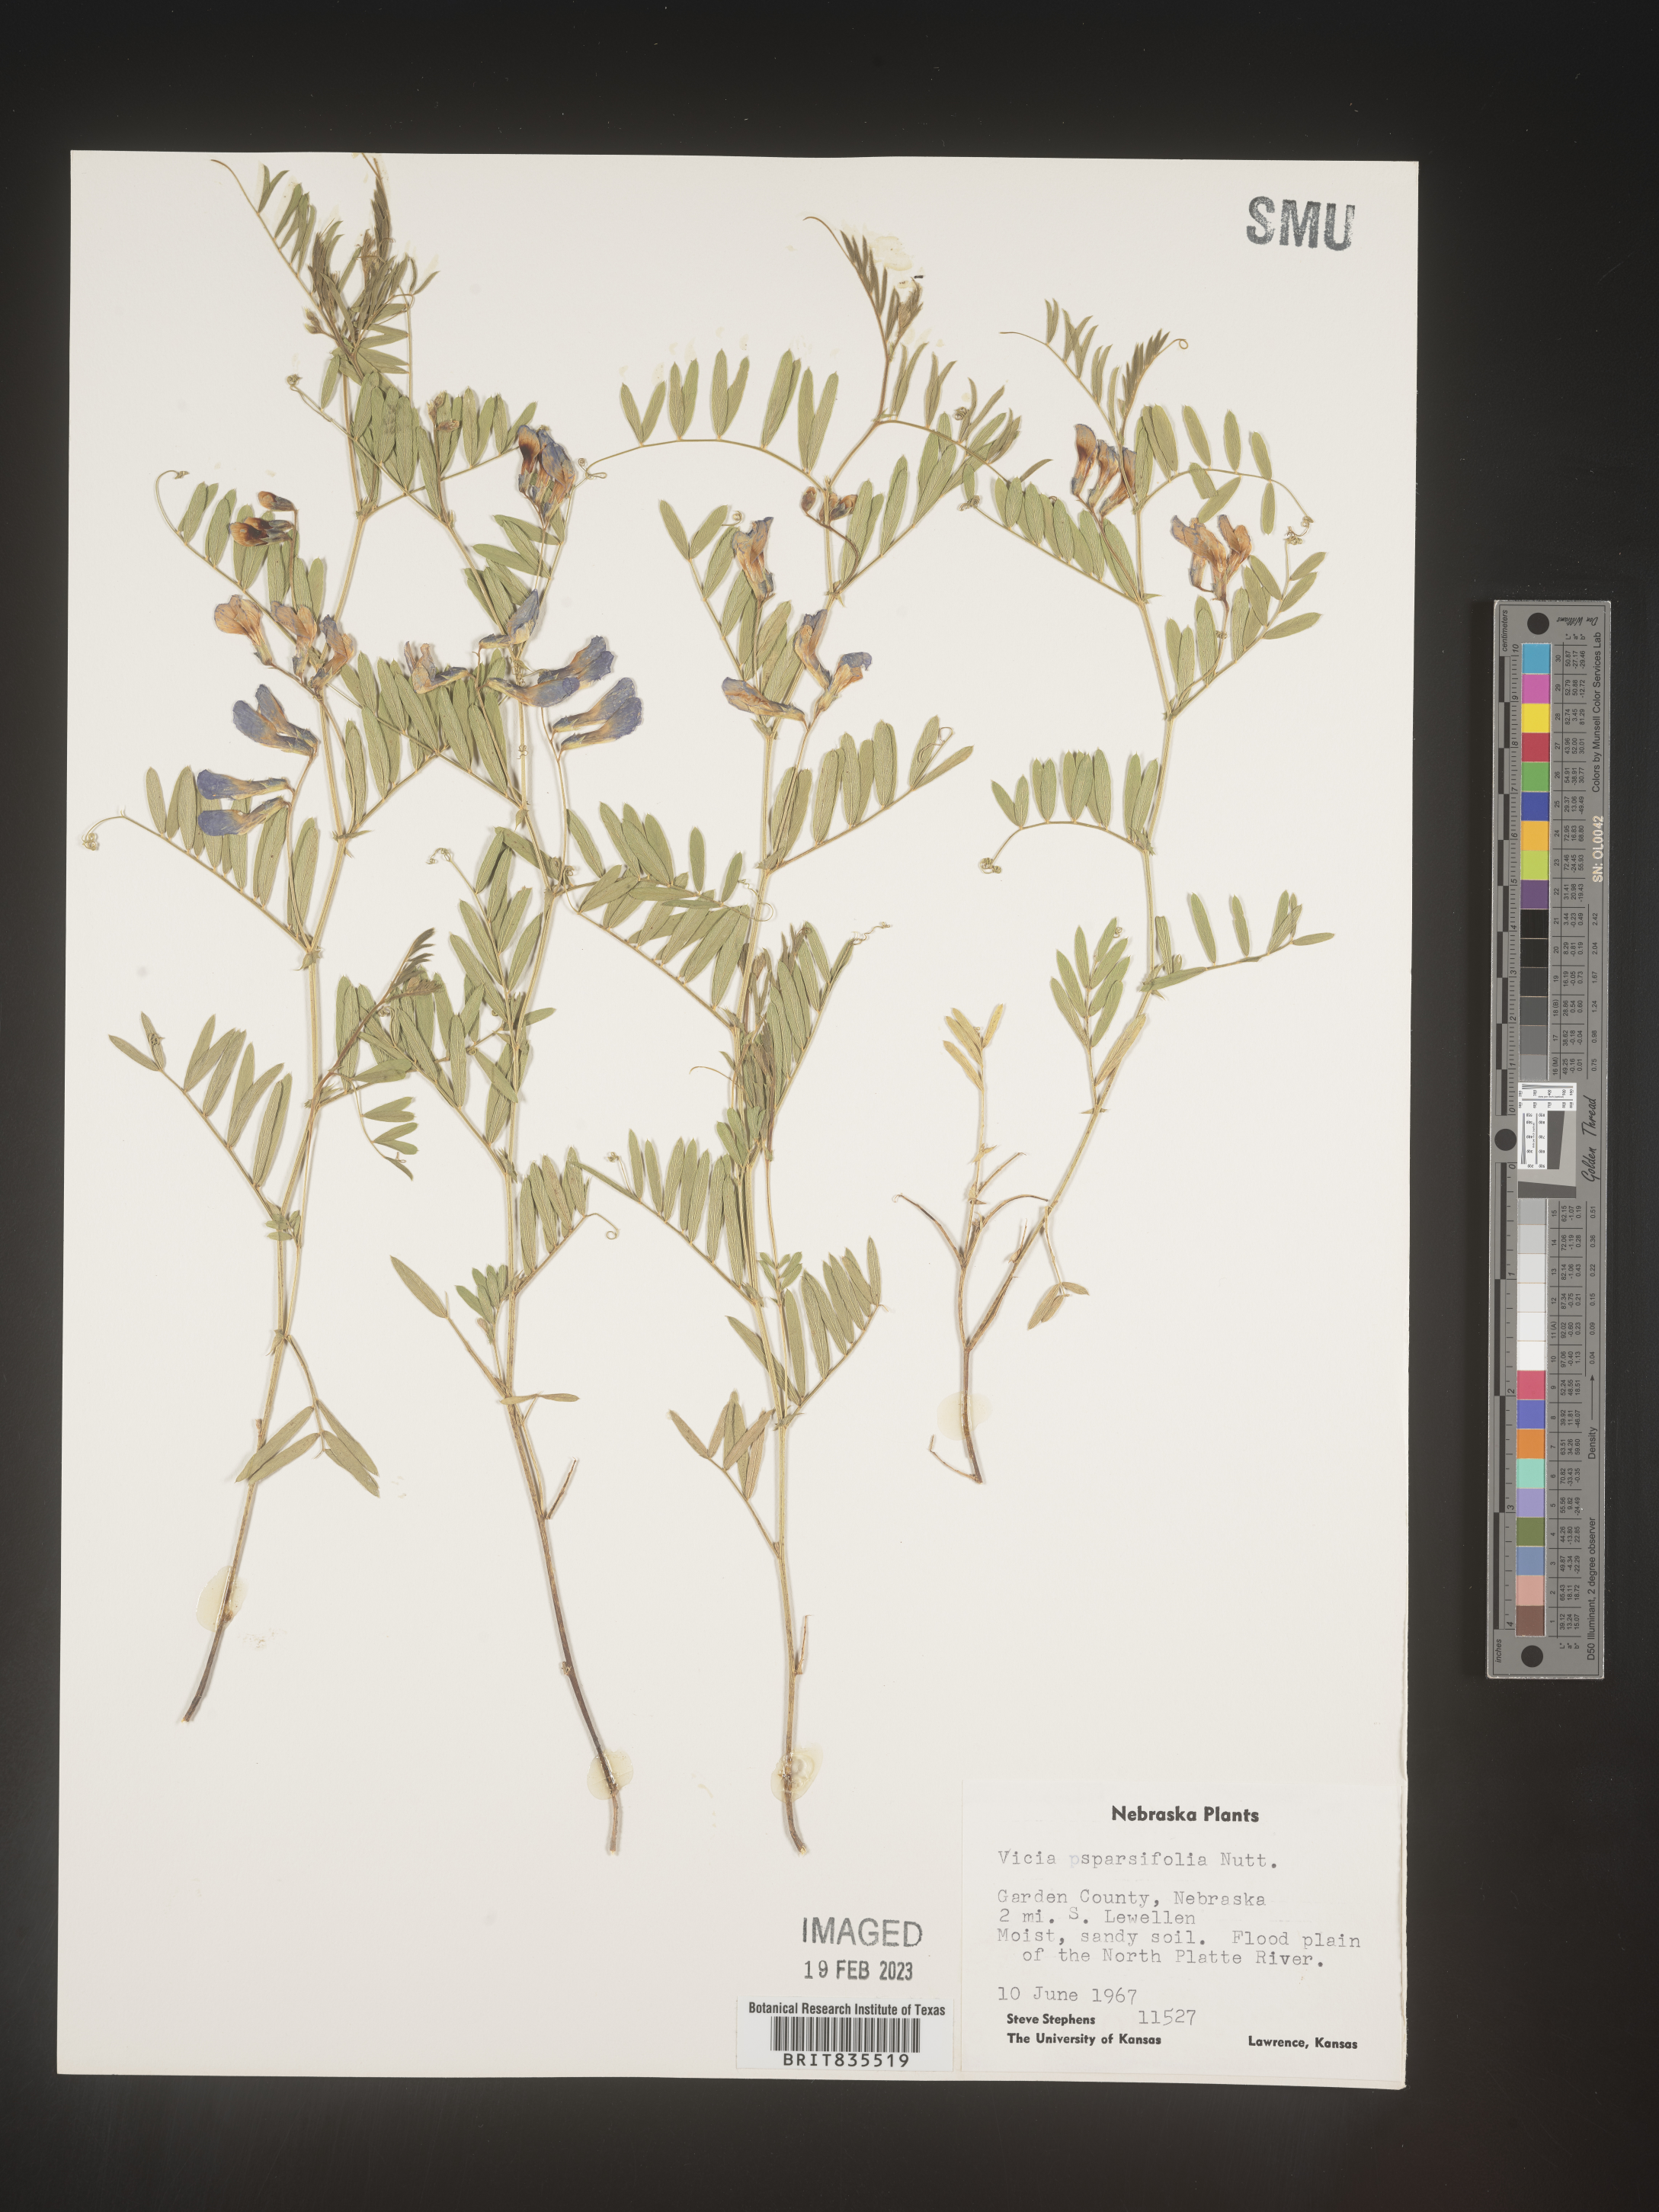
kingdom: Plantae
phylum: Tracheophyta
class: Magnoliopsida
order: Fabales
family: Fabaceae
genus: Vicia
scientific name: Vicia americana
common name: American vetch
